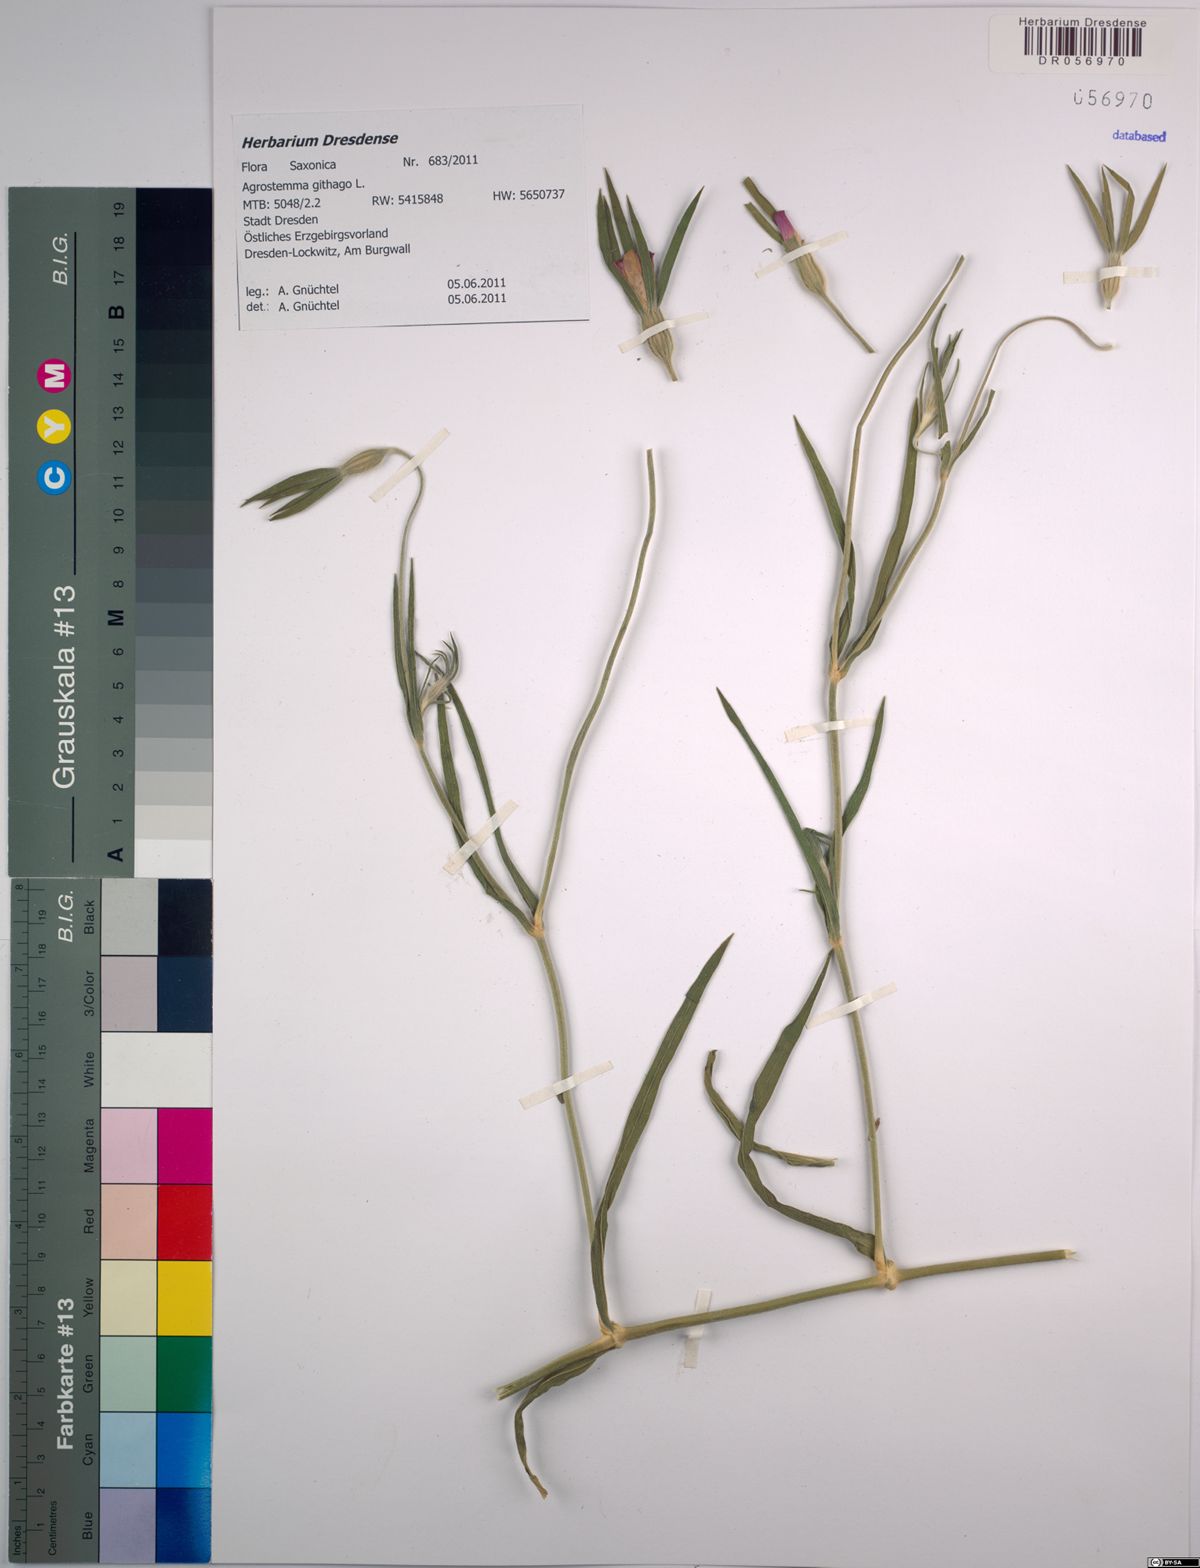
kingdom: Plantae
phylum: Tracheophyta
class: Magnoliopsida
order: Caryophyllales
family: Caryophyllaceae
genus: Agrostemma
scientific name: Agrostemma githago
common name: Common corncockle
